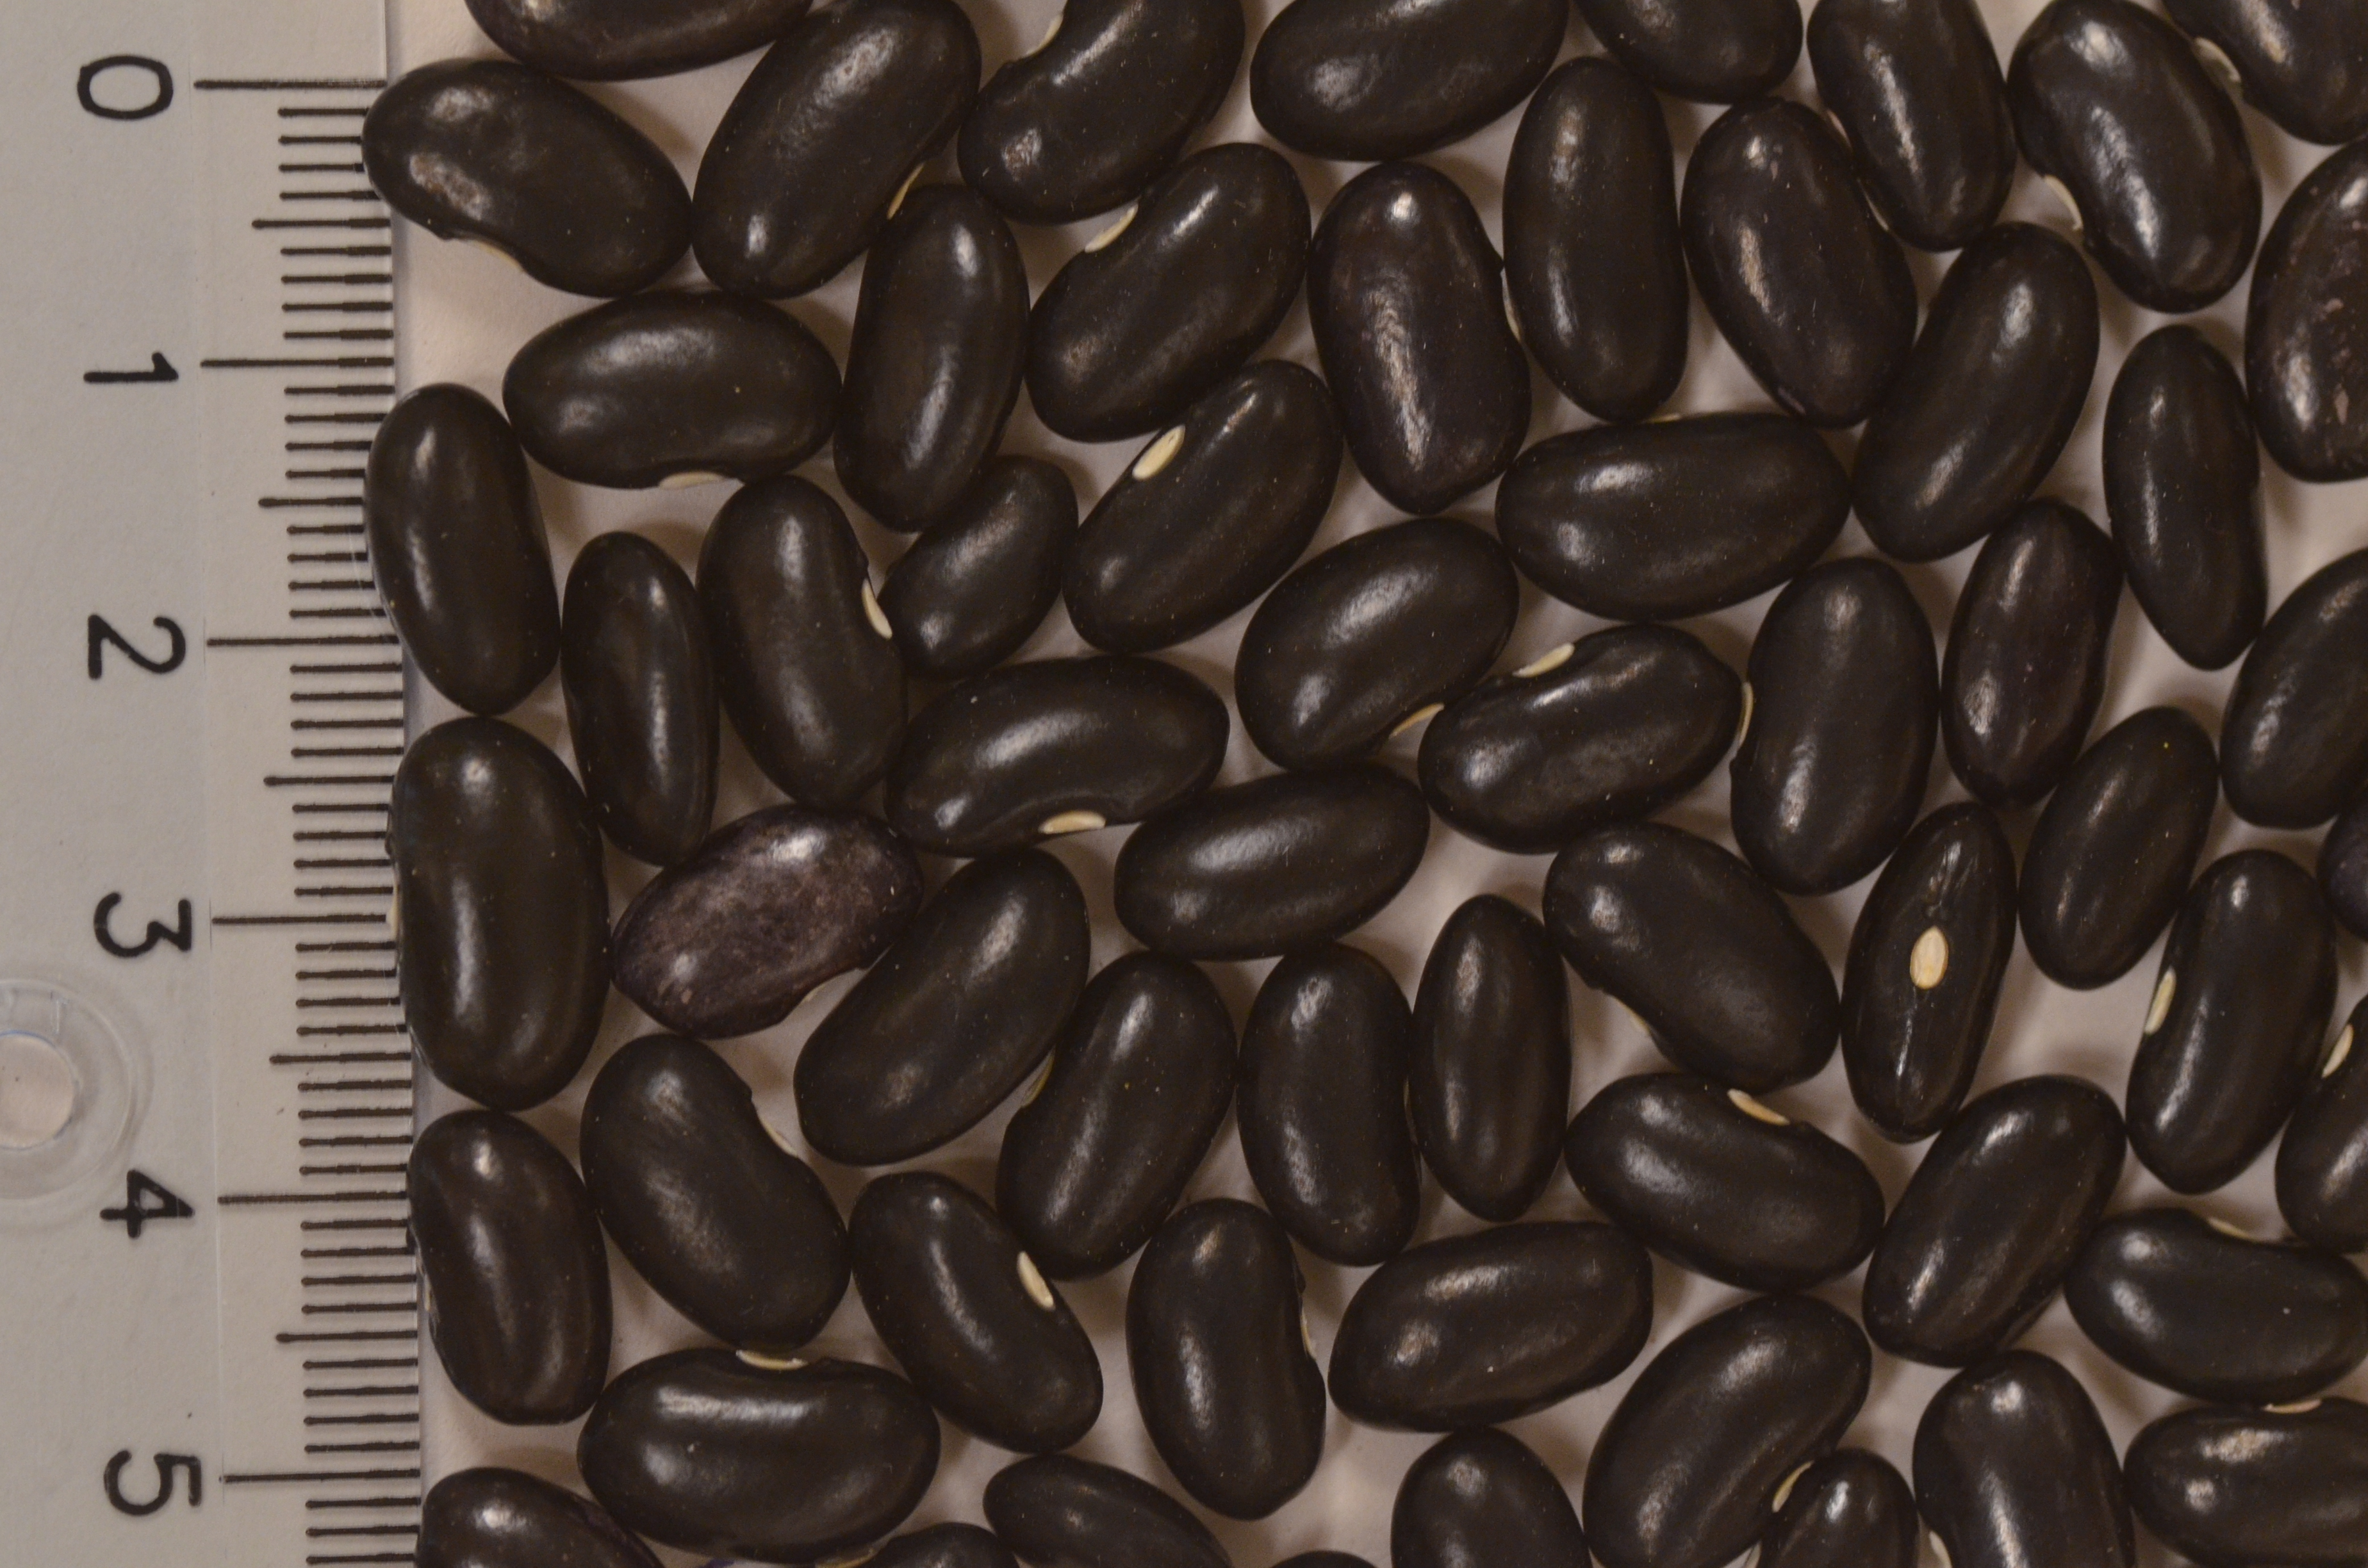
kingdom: Plantae
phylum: Tracheophyta
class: Magnoliopsida
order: Fabales
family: Fabaceae
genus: Phaseolus
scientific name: Phaseolus vulgaris
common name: Bean
